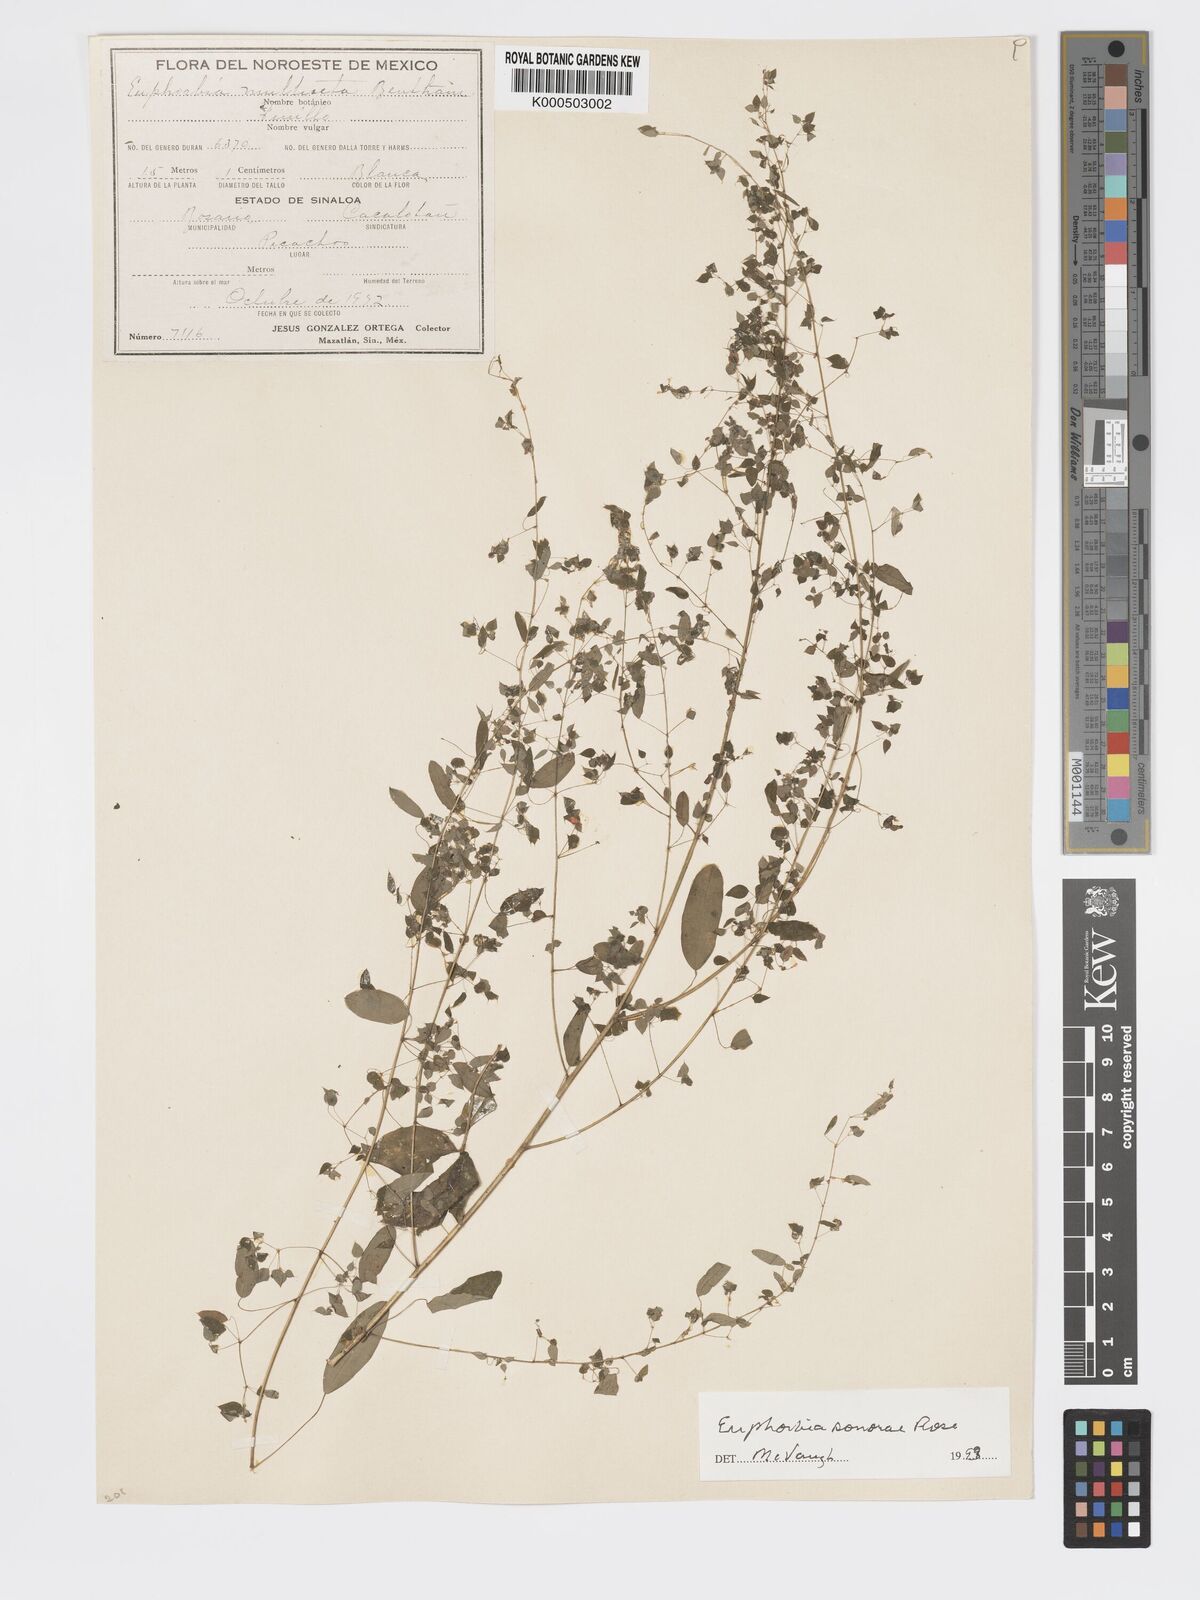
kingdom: Plantae
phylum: Tracheophyta
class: Magnoliopsida
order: Malpighiales
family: Euphorbiaceae
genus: Euphorbia
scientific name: Euphorbia adiantoides
